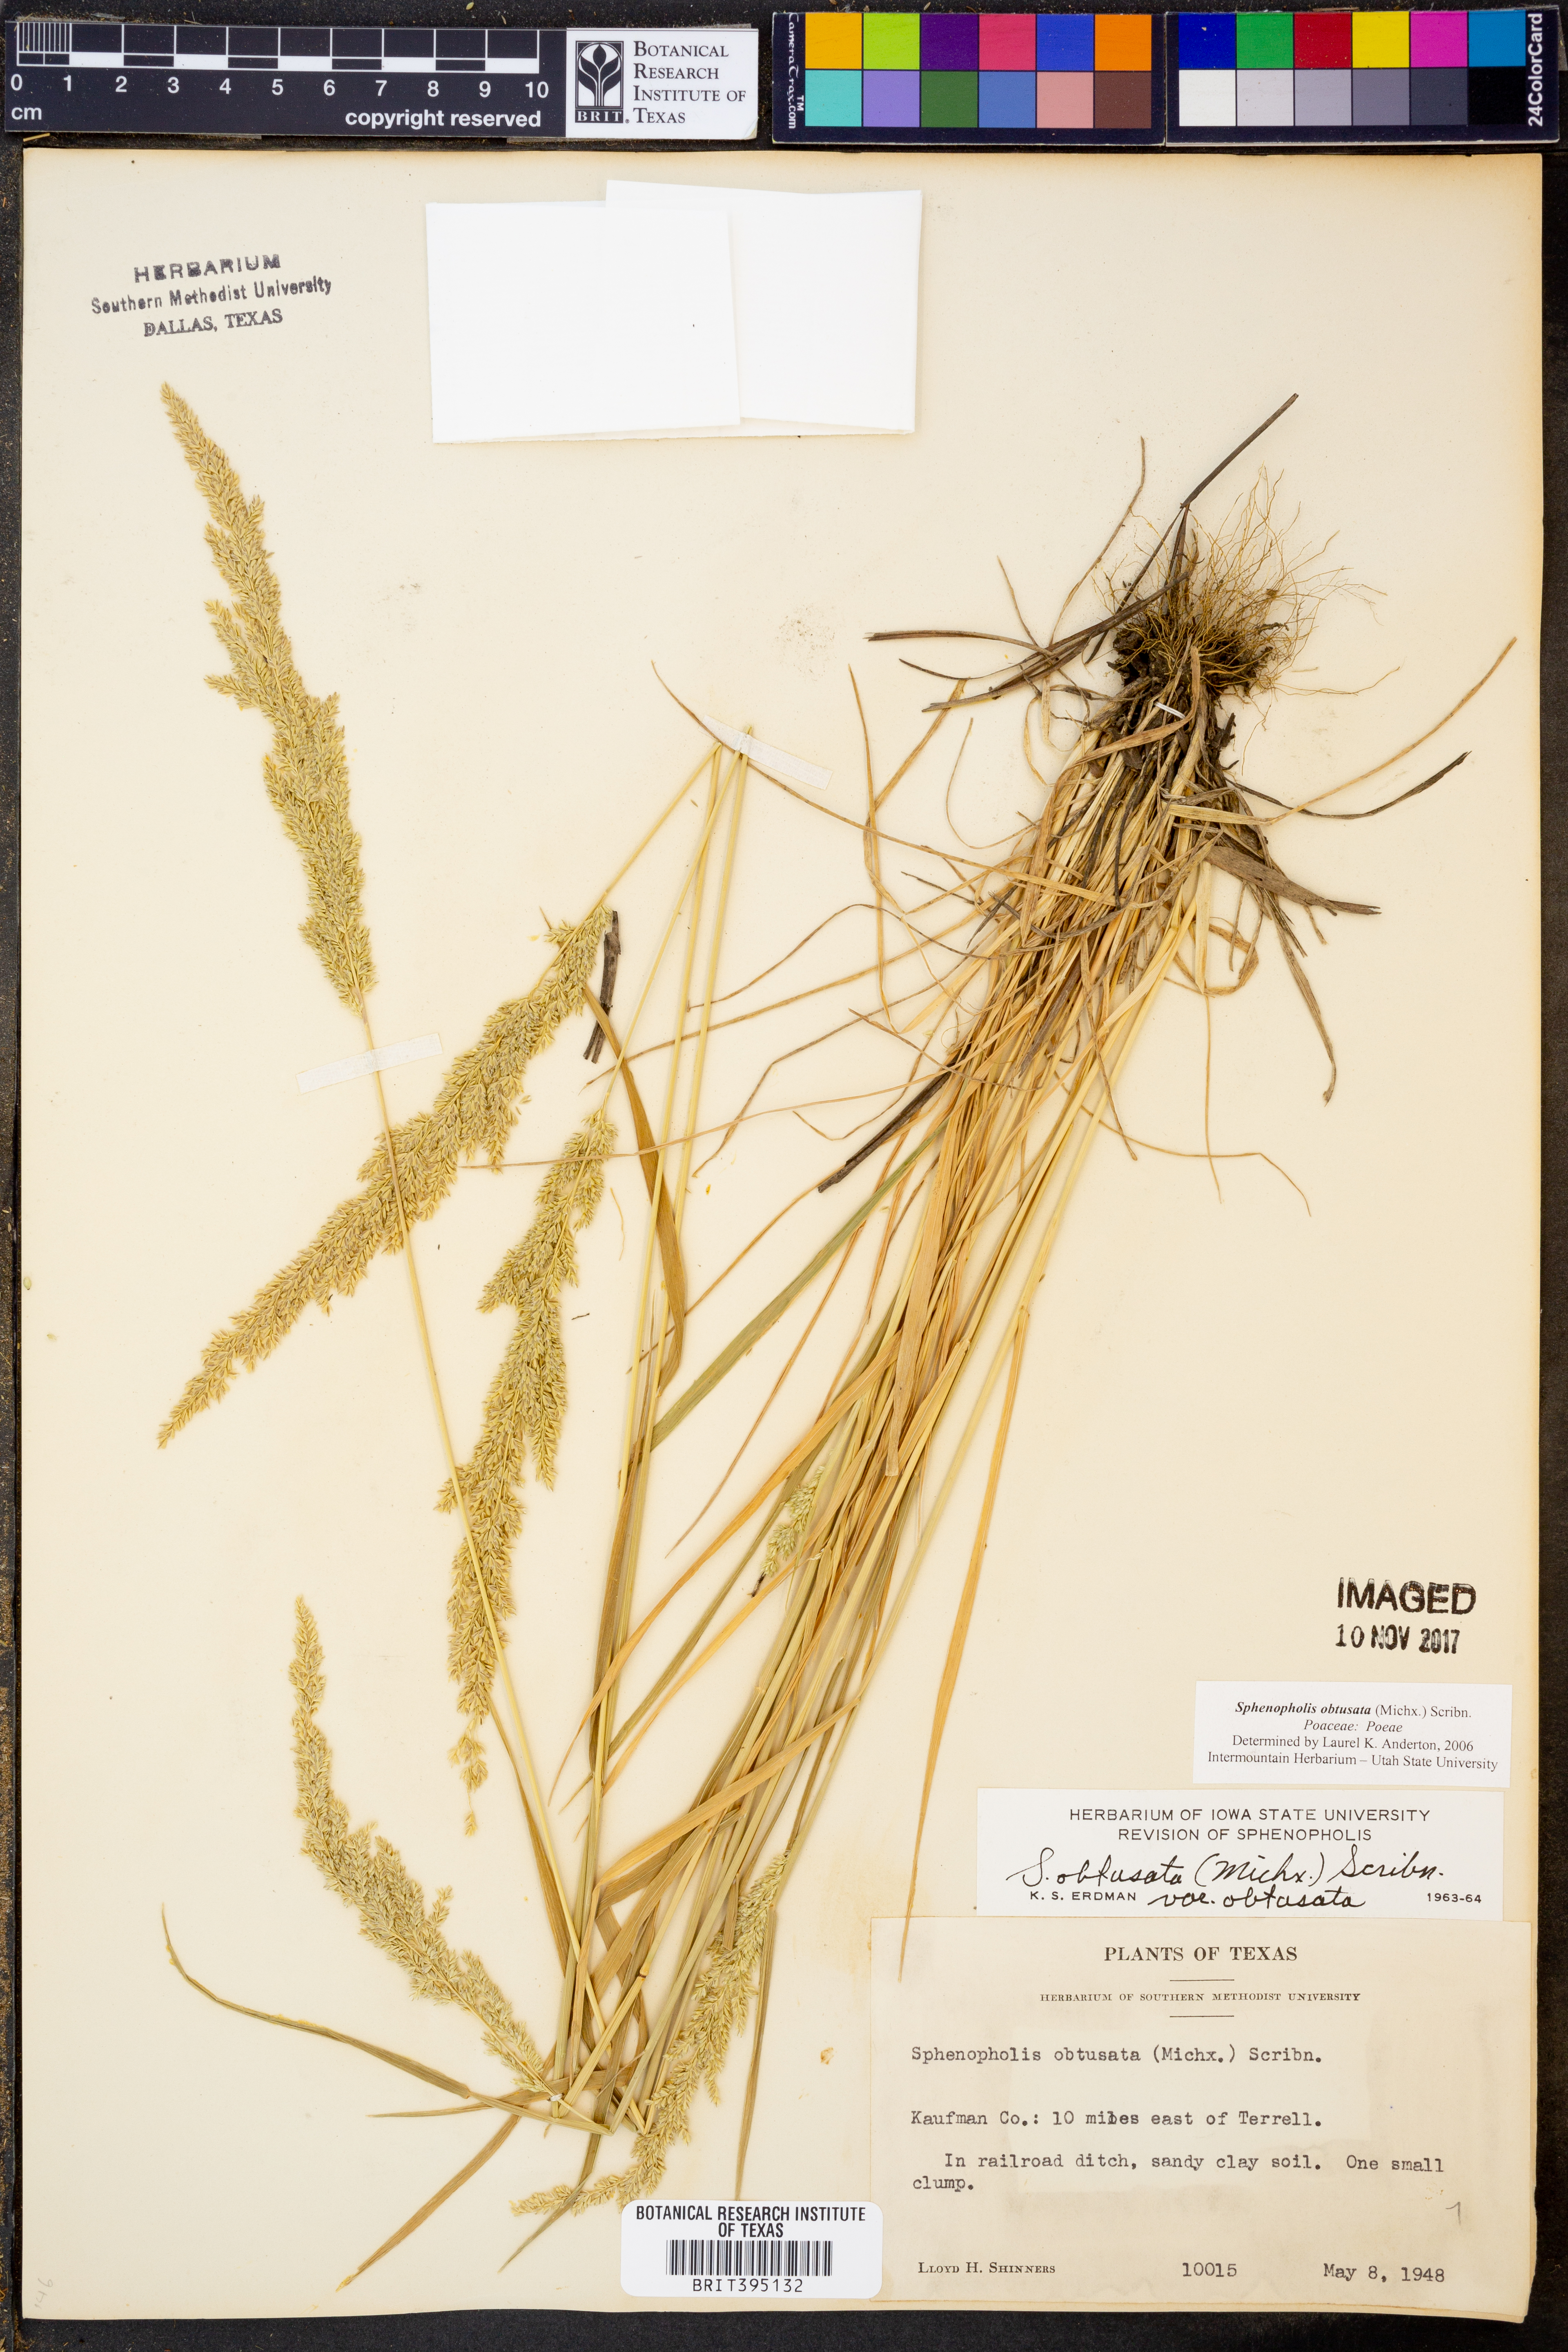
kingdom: Plantae
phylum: Tracheophyta
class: Liliopsida
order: Poales
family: Poaceae
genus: Sphenopholis
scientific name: Sphenopholis obtusata
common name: Prairie grass
